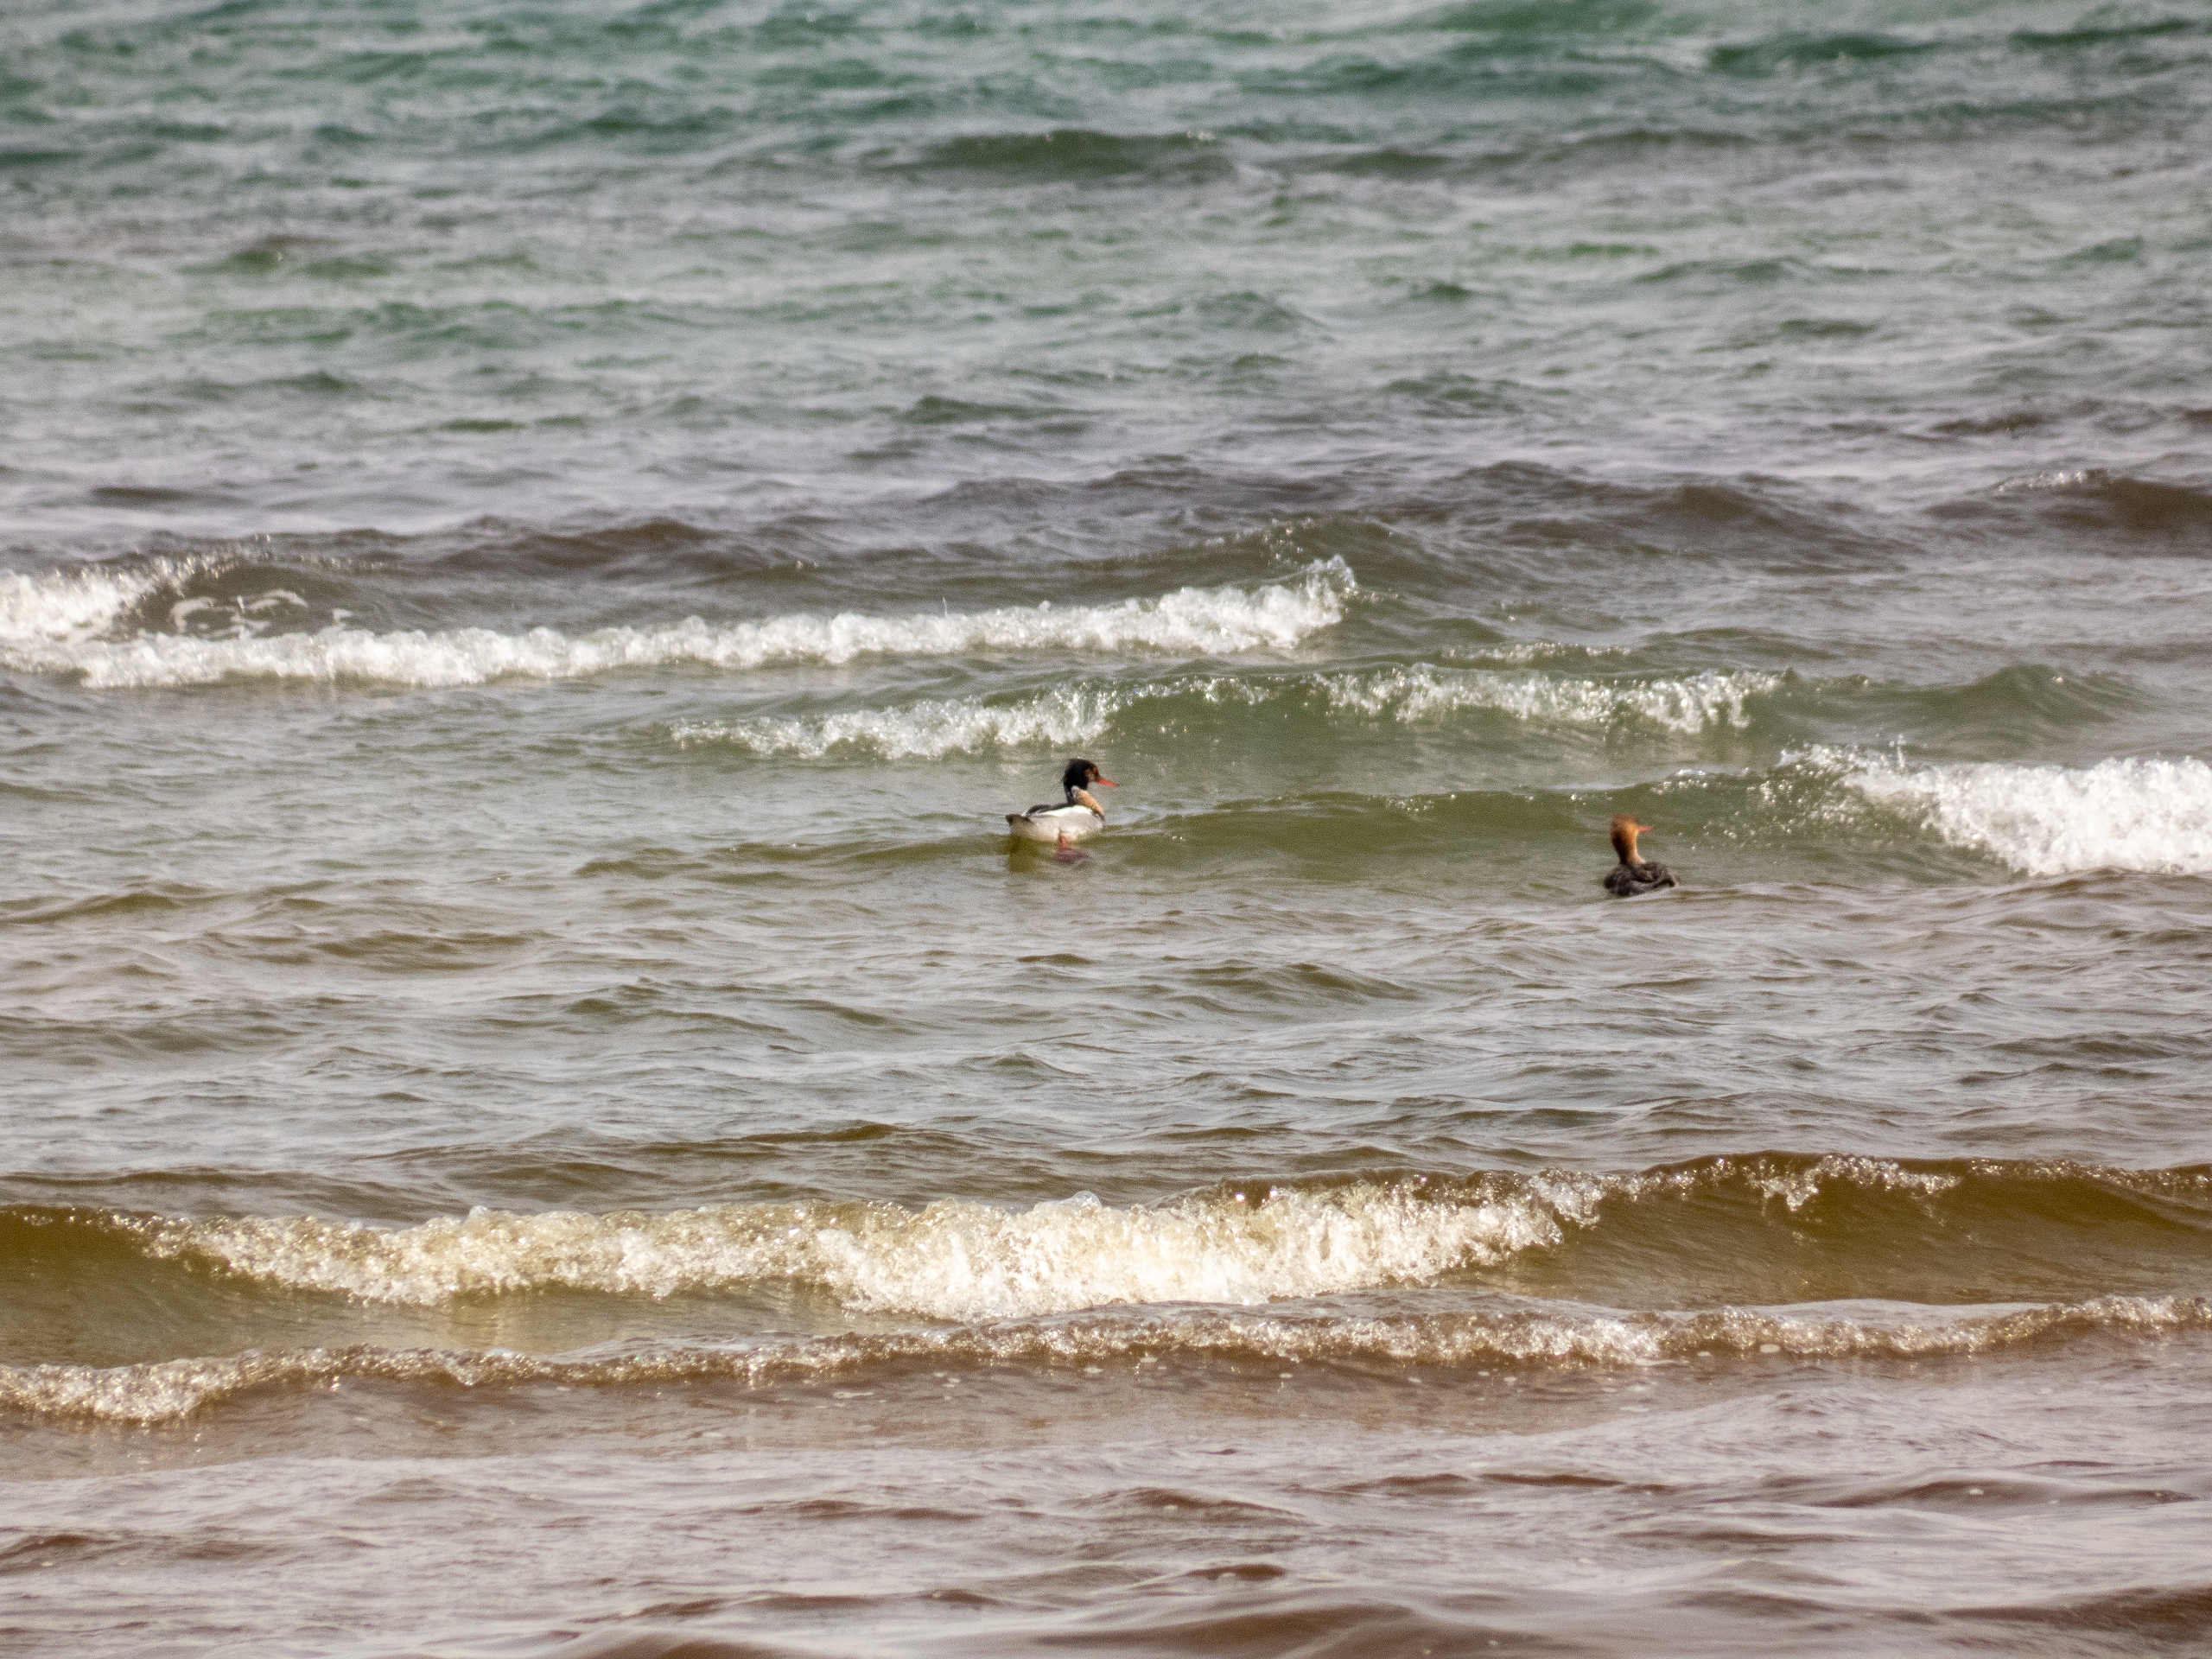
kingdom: Animalia
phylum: Chordata
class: Aves
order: Anseriformes
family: Anatidae
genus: Mergus
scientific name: Mergus serrator
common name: Toppet skallesluger
